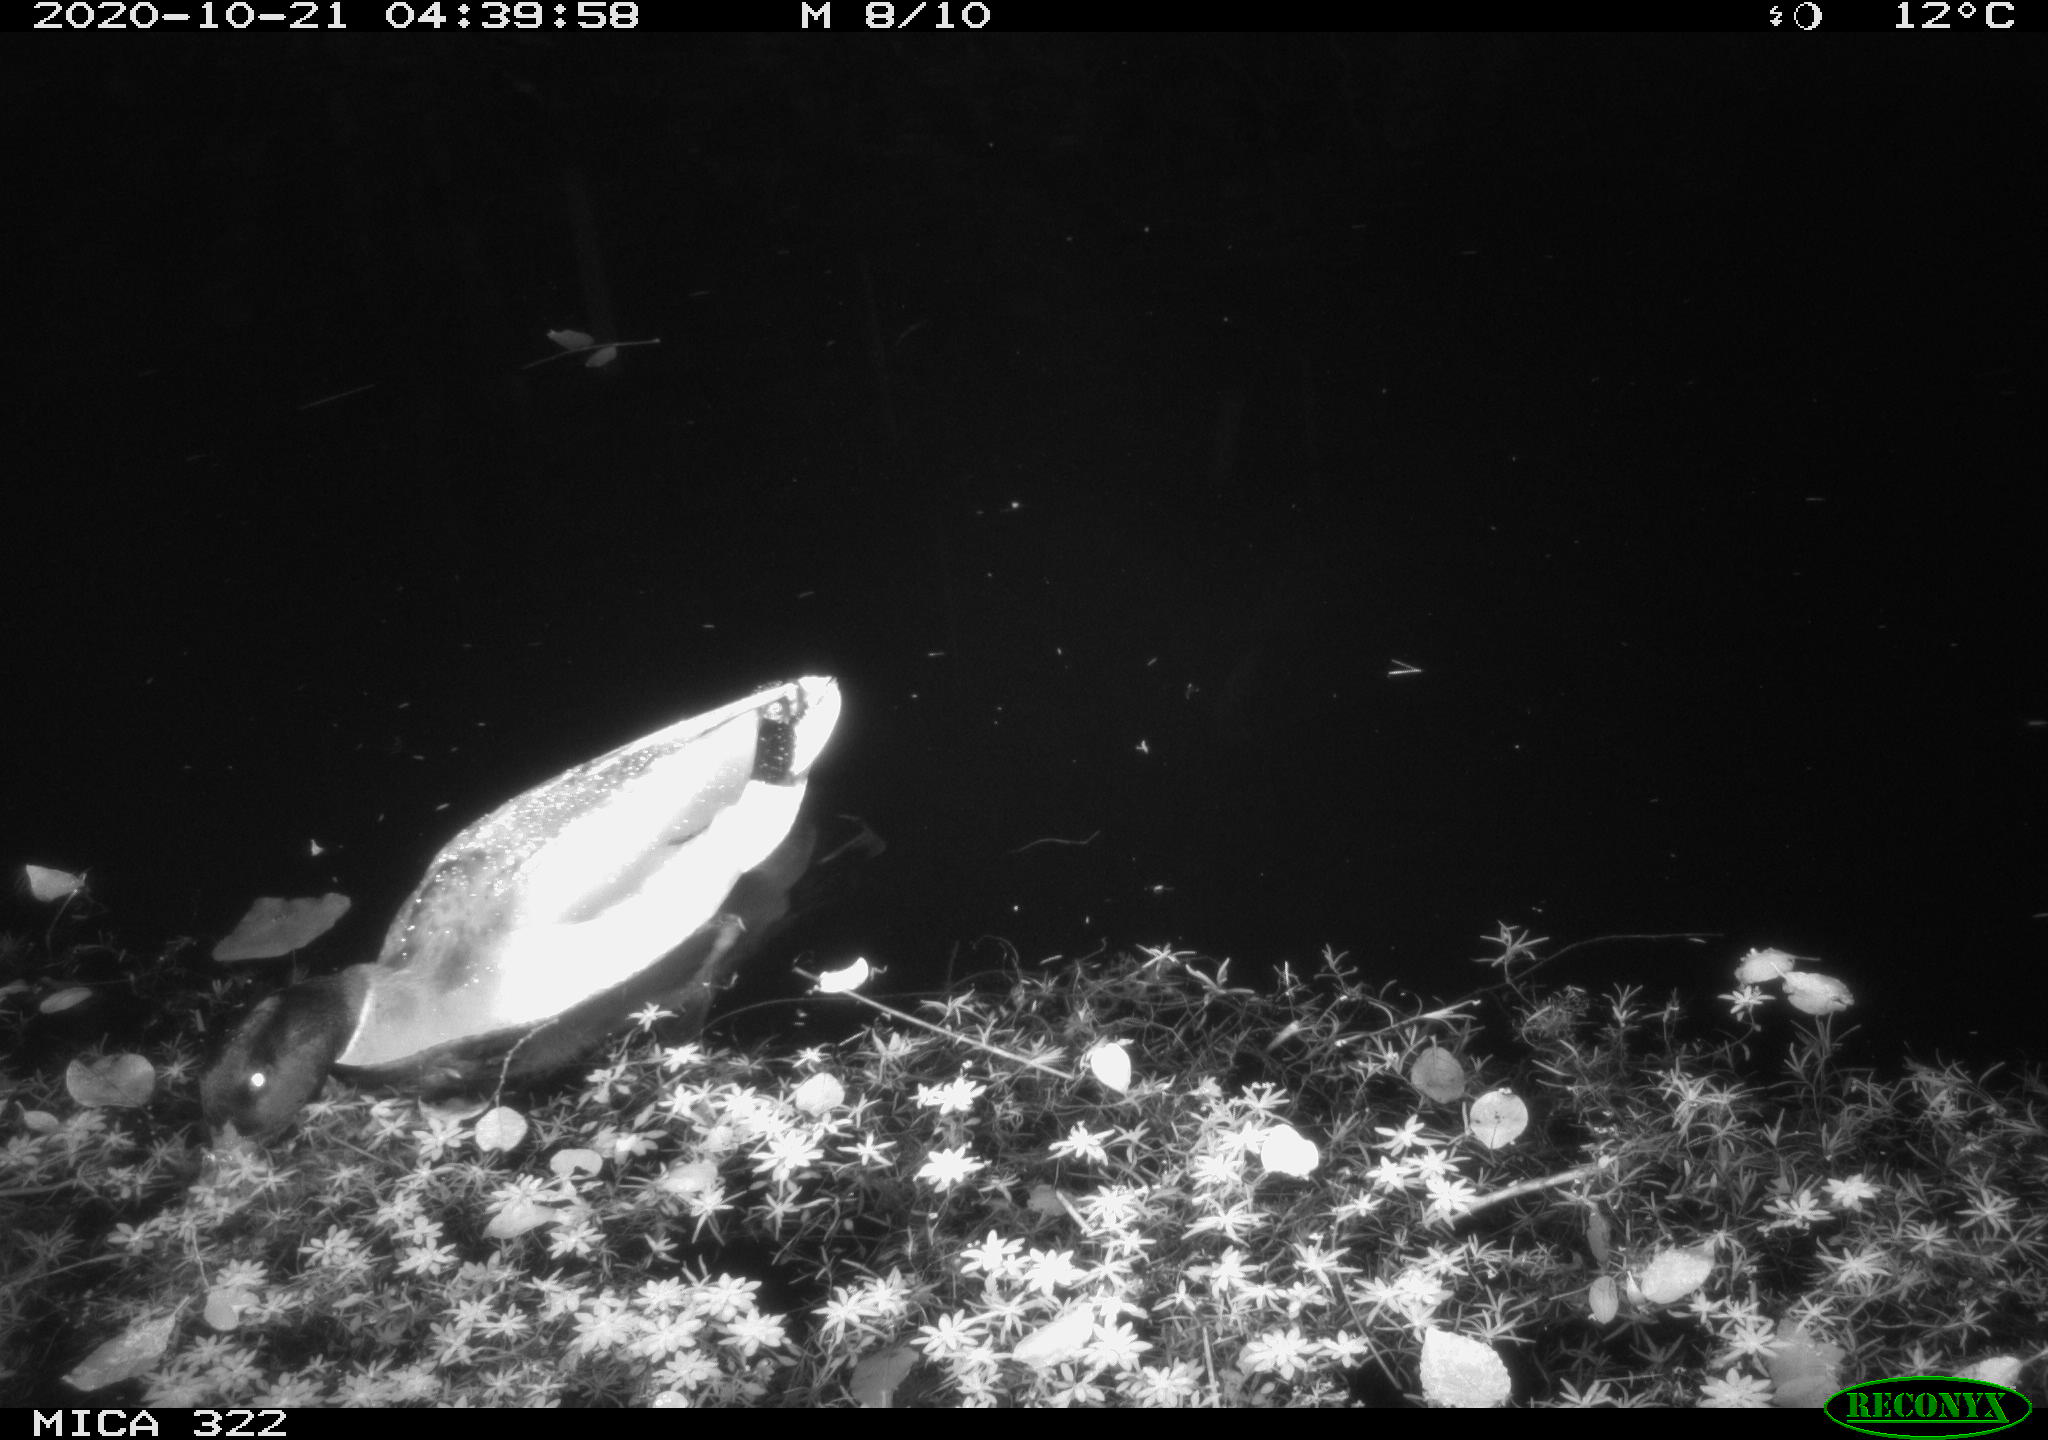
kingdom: Animalia
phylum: Chordata
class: Aves
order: Anseriformes
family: Anatidae
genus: Anas
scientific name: Anas platyrhynchos
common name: Mallard
